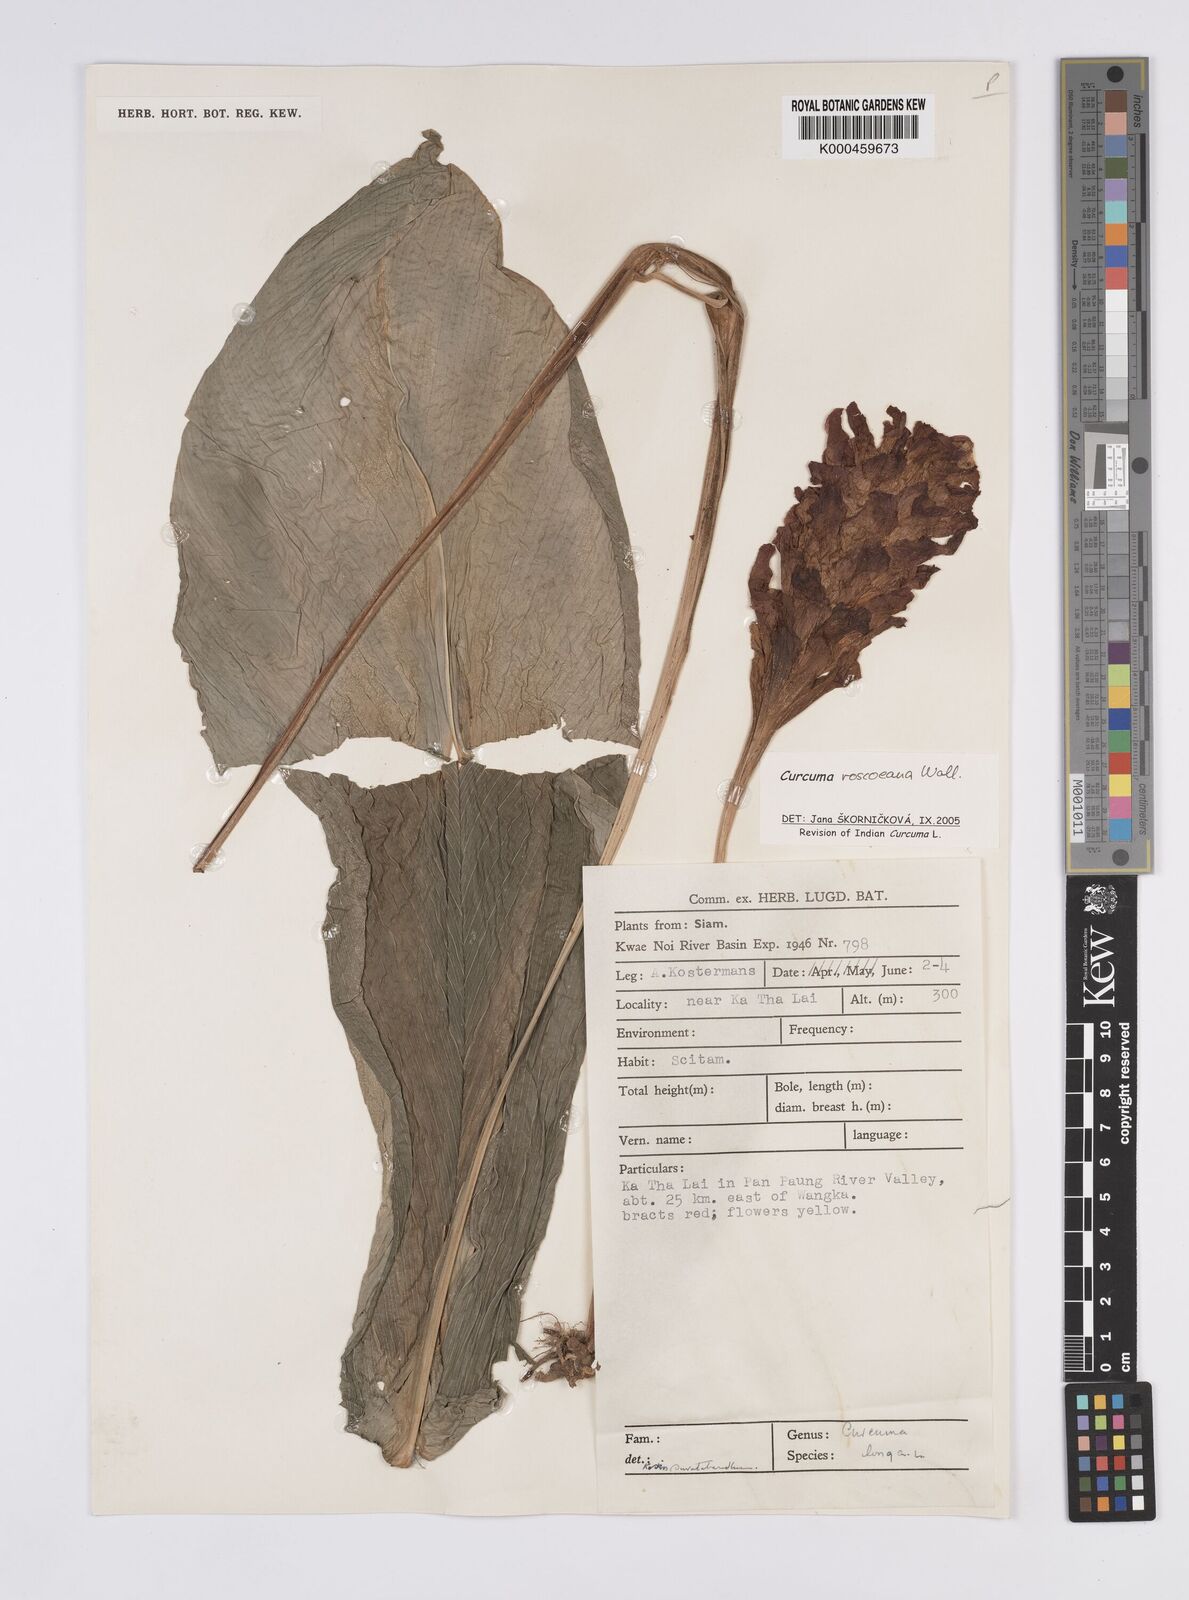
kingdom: Plantae
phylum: Tracheophyta
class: Liliopsida
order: Zingiberales
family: Zingiberaceae
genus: Curcuma
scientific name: Curcuma roscoeana
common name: Jewel of burma
